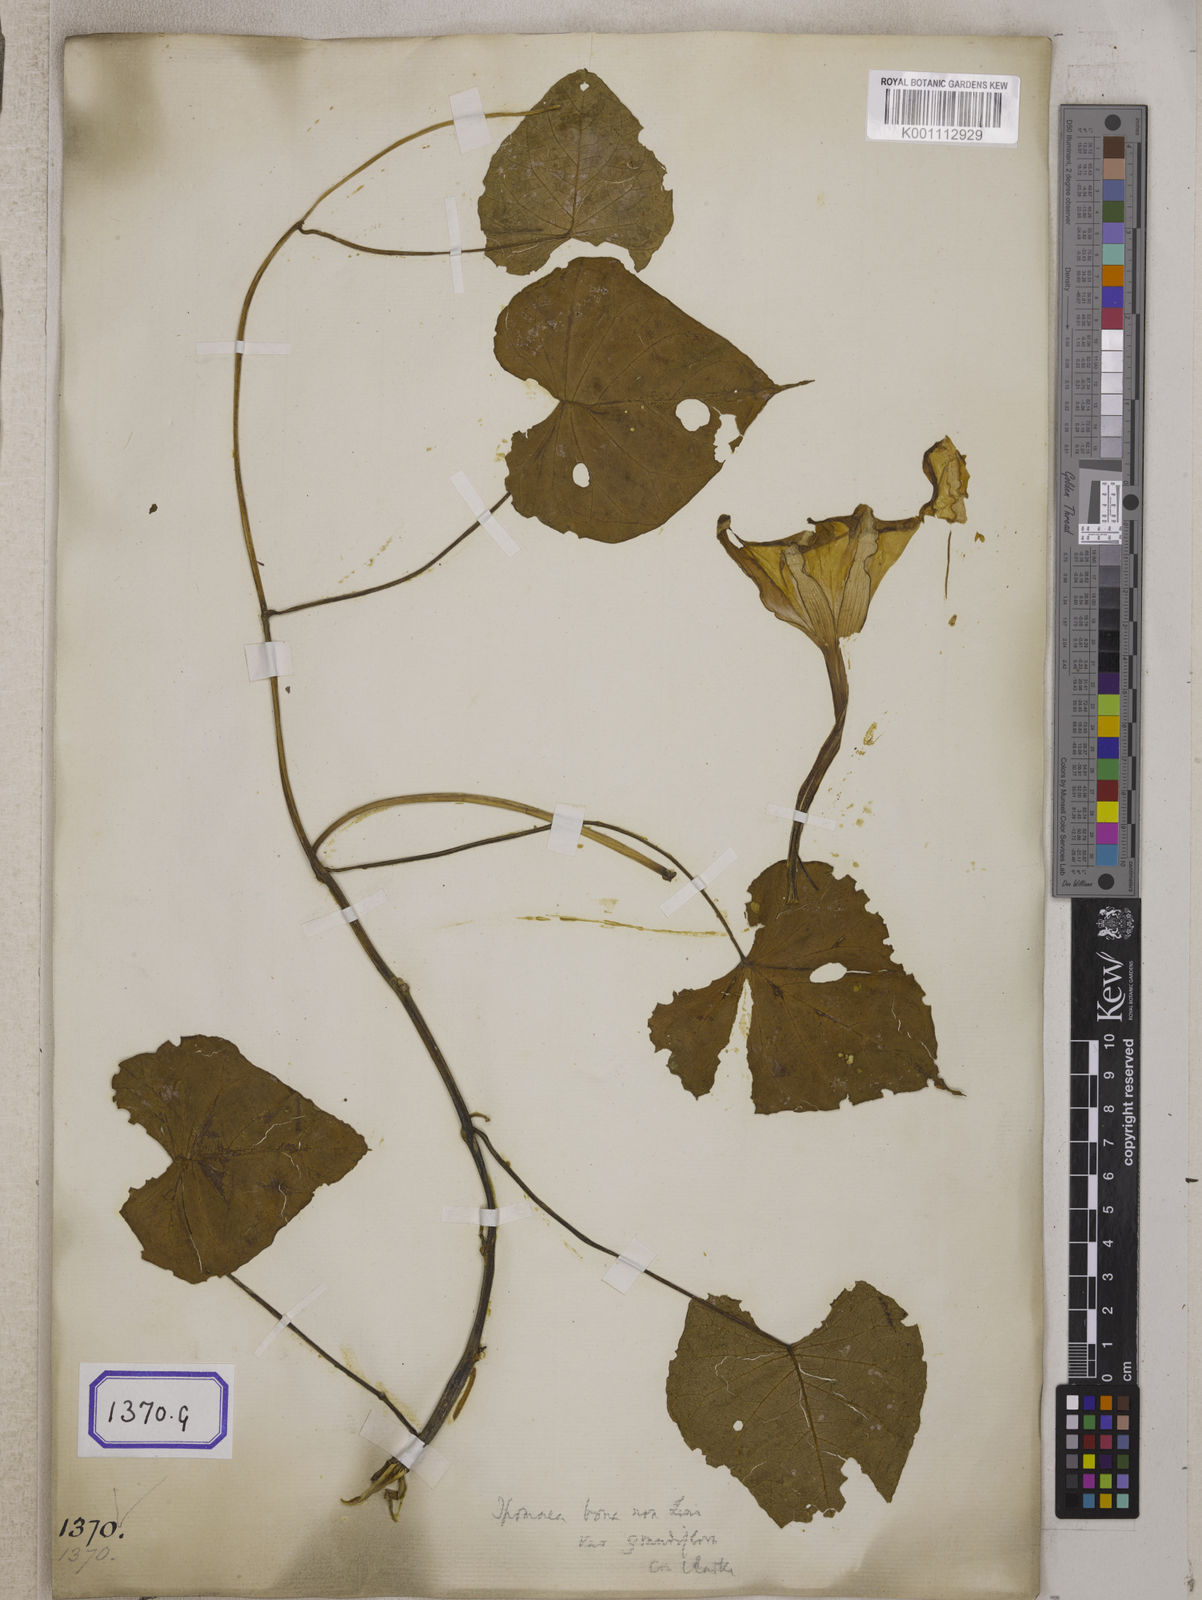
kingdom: Plantae
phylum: Tracheophyta
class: Magnoliopsida
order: Solanales
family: Convolvulaceae
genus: Convolvulus
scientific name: Convolvulus
